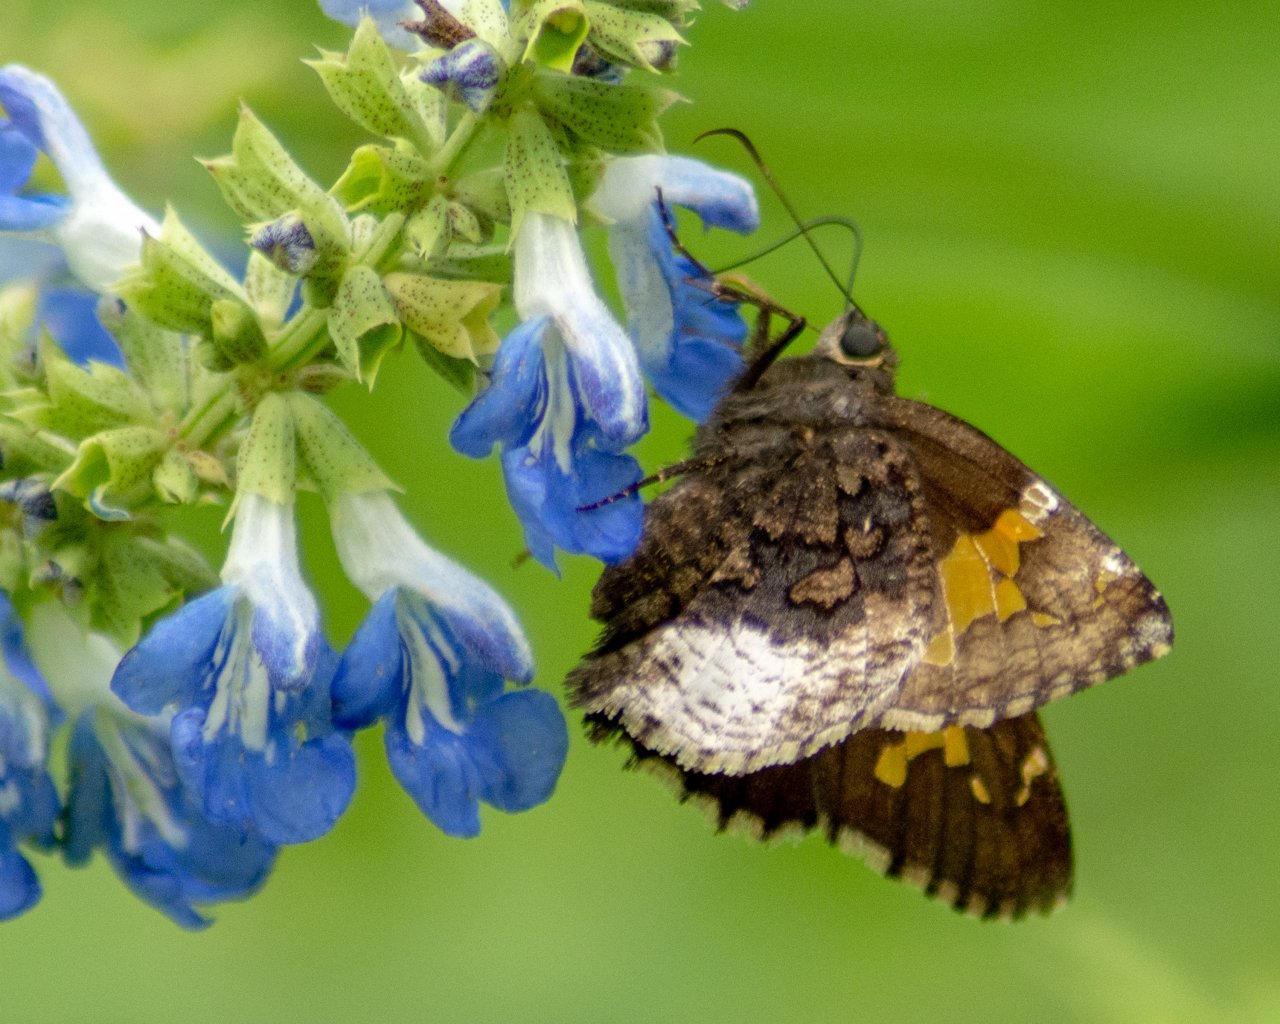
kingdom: Animalia
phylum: Arthropoda
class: Insecta
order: Lepidoptera
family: Hesperiidae
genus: Achalarus
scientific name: Achalarus lyciades
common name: Hoary Edge
